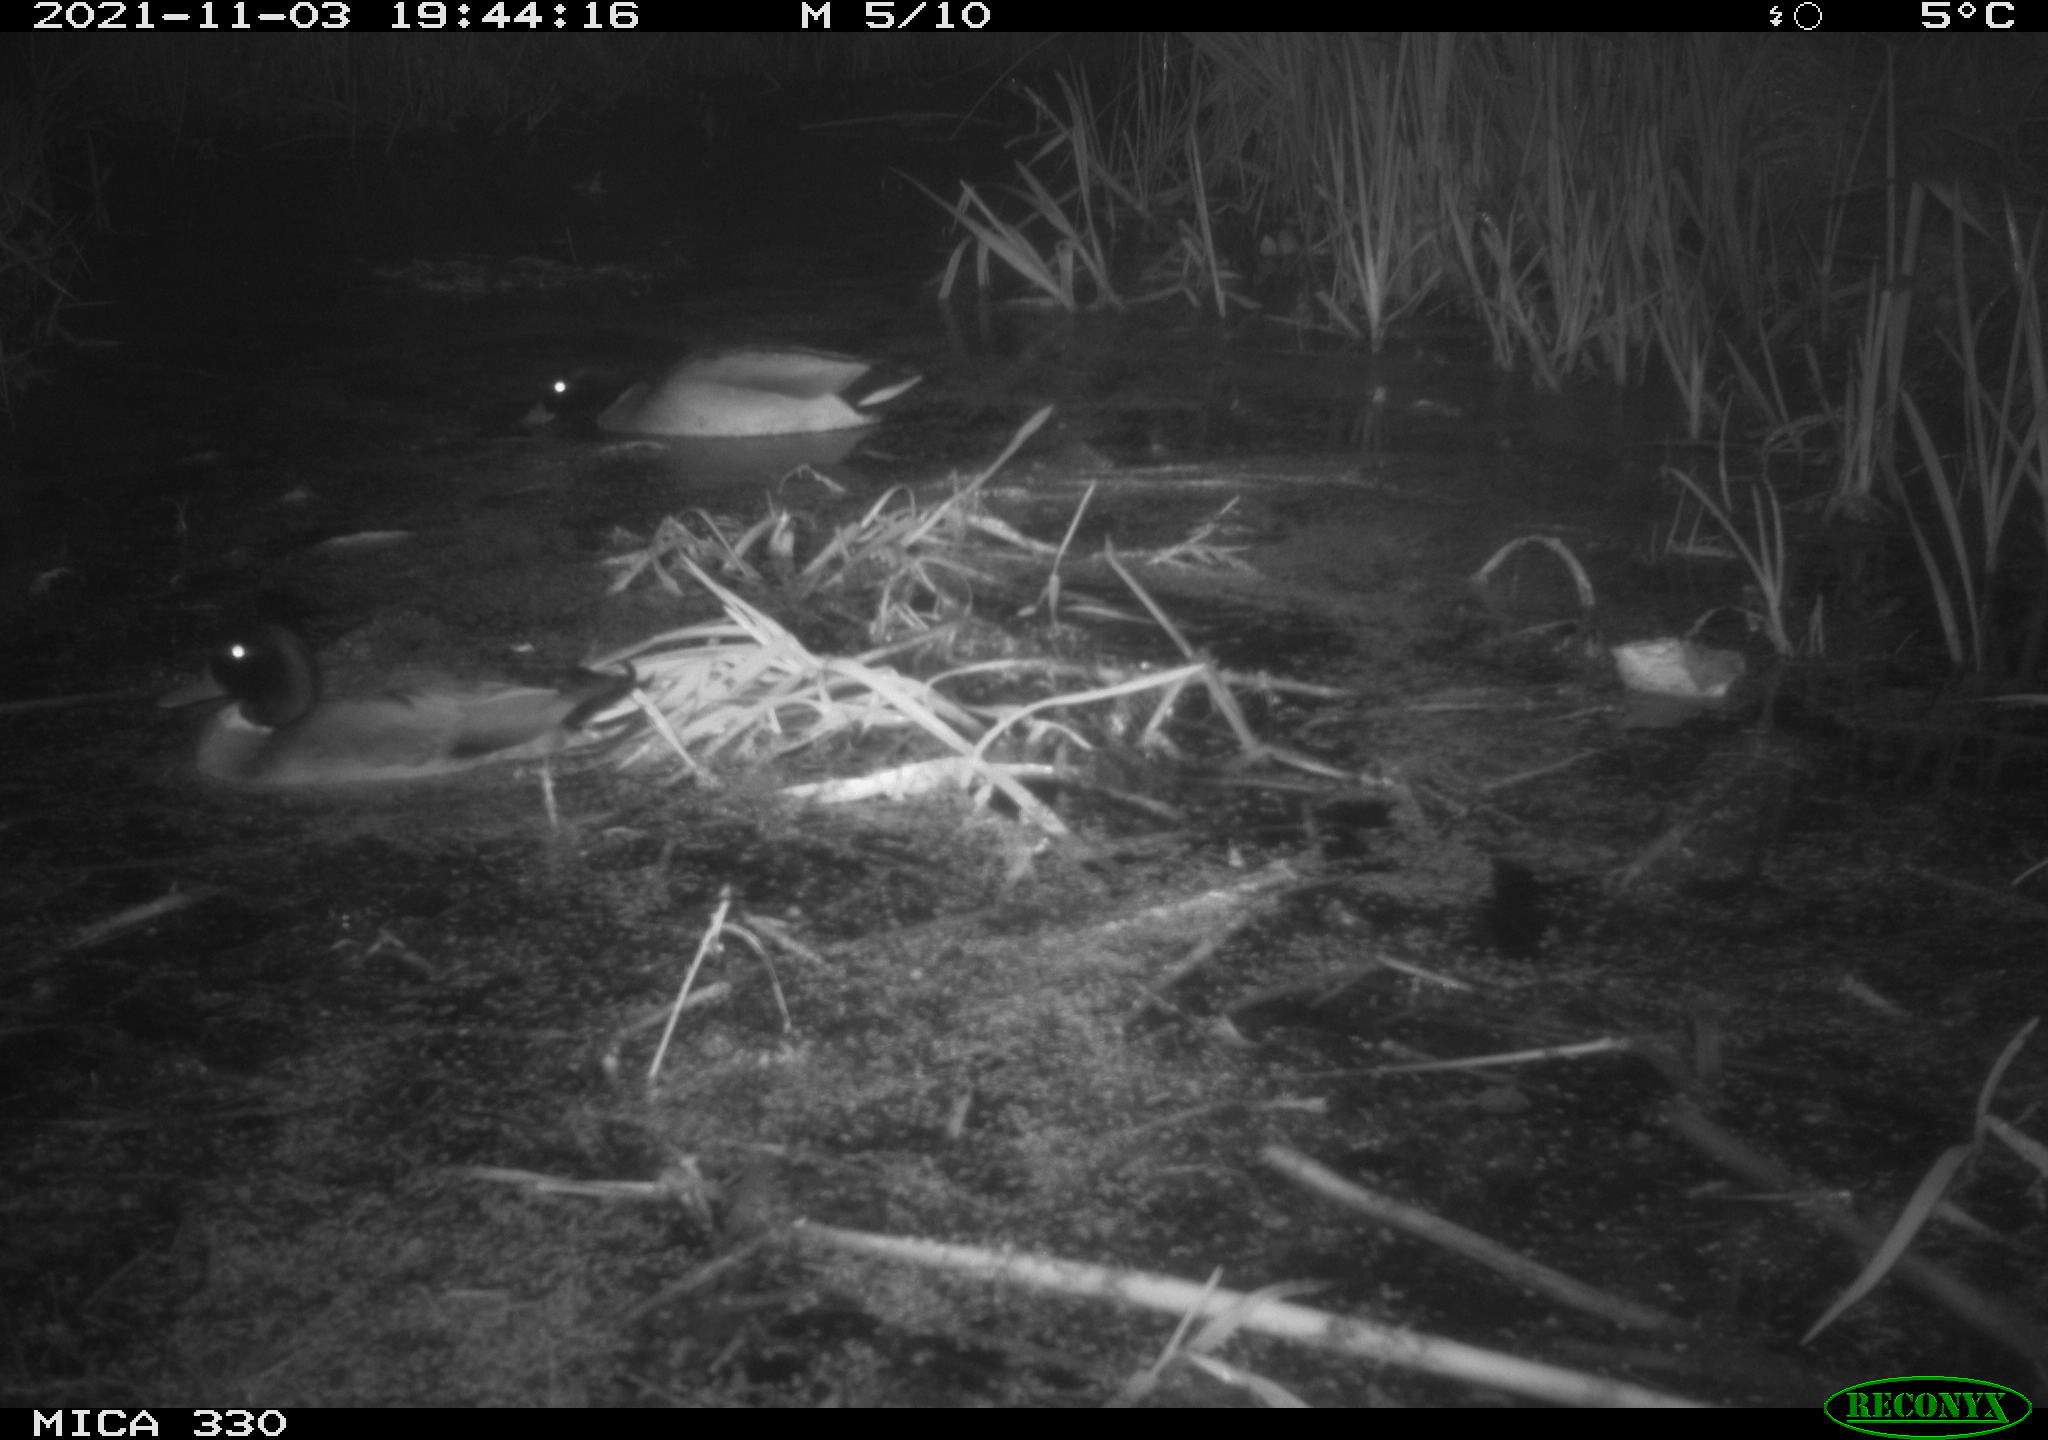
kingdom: Animalia
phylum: Chordata
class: Aves
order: Anseriformes
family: Anatidae
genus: Anas
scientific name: Anas platyrhynchos
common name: Mallard
